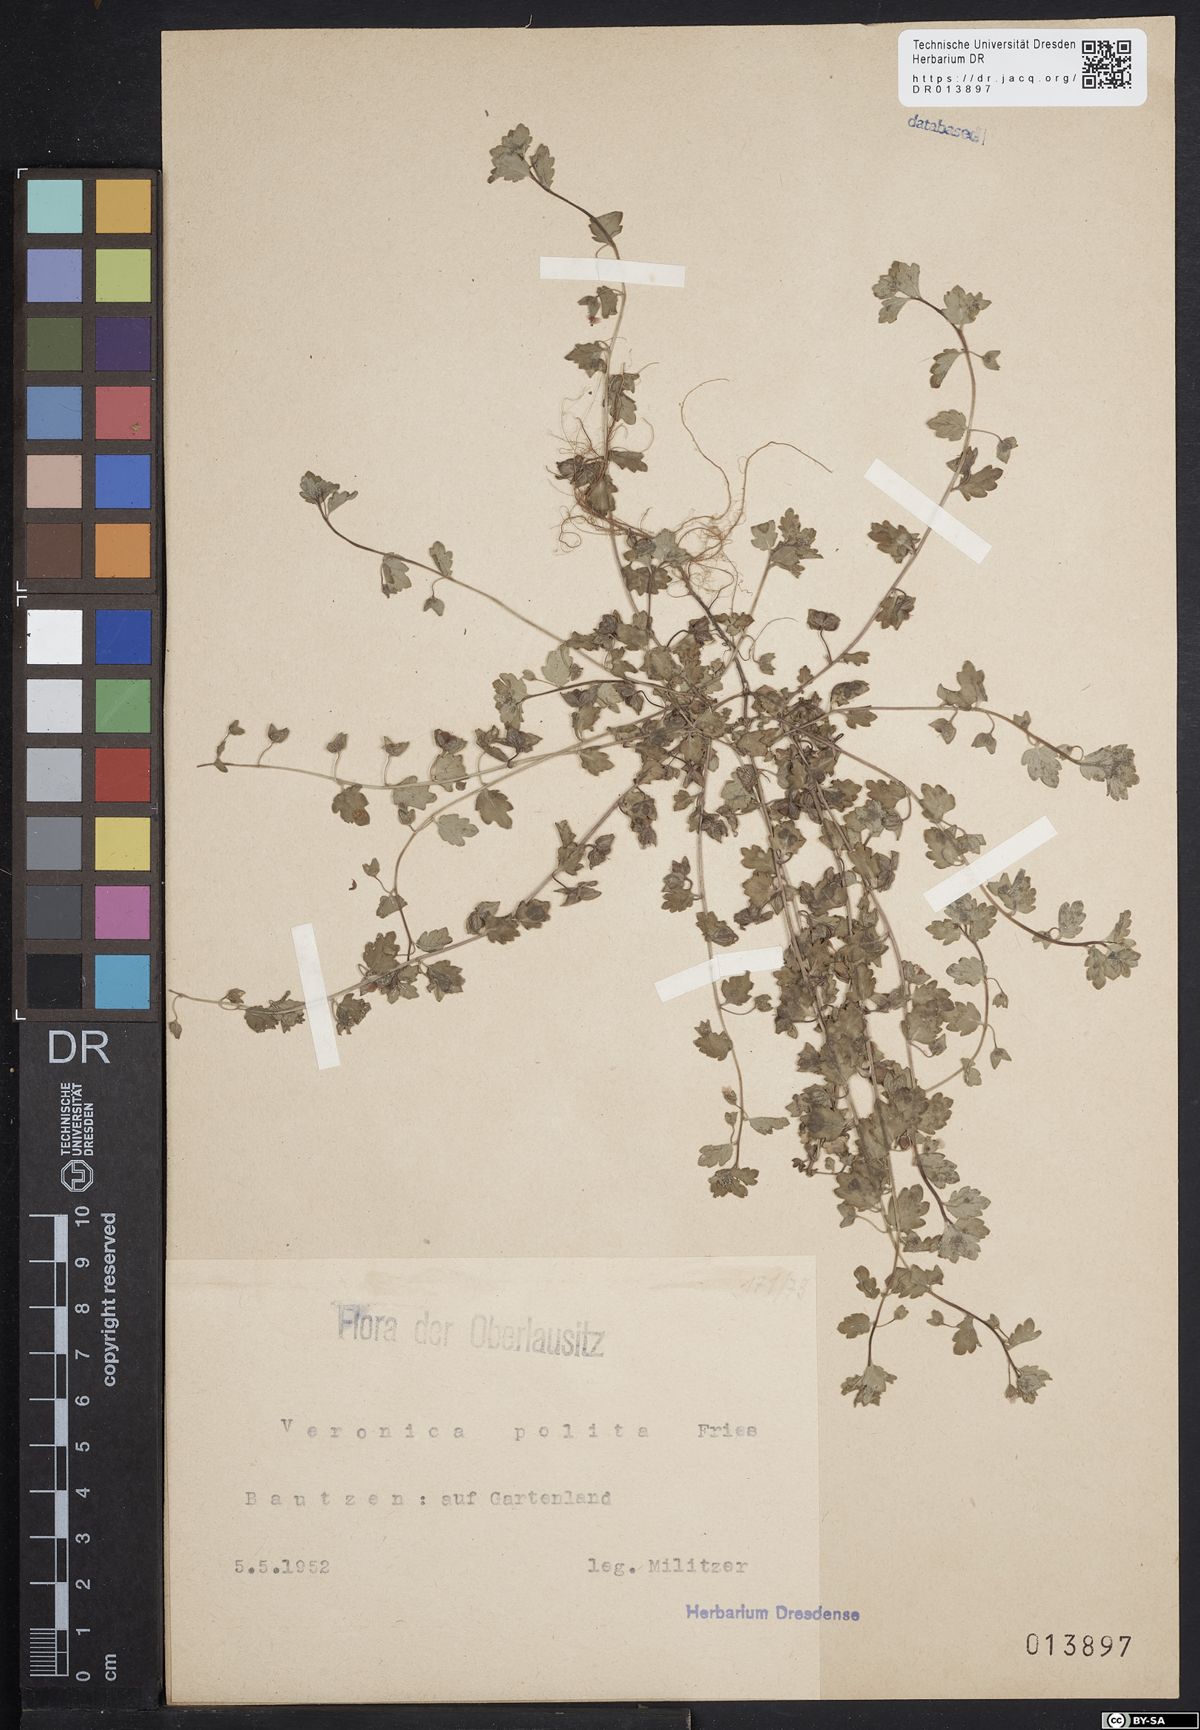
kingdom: Plantae
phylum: Tracheophyta
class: Magnoliopsida
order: Lamiales
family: Plantaginaceae
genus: Veronica
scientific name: Veronica polita
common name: Grey field-speedwell
